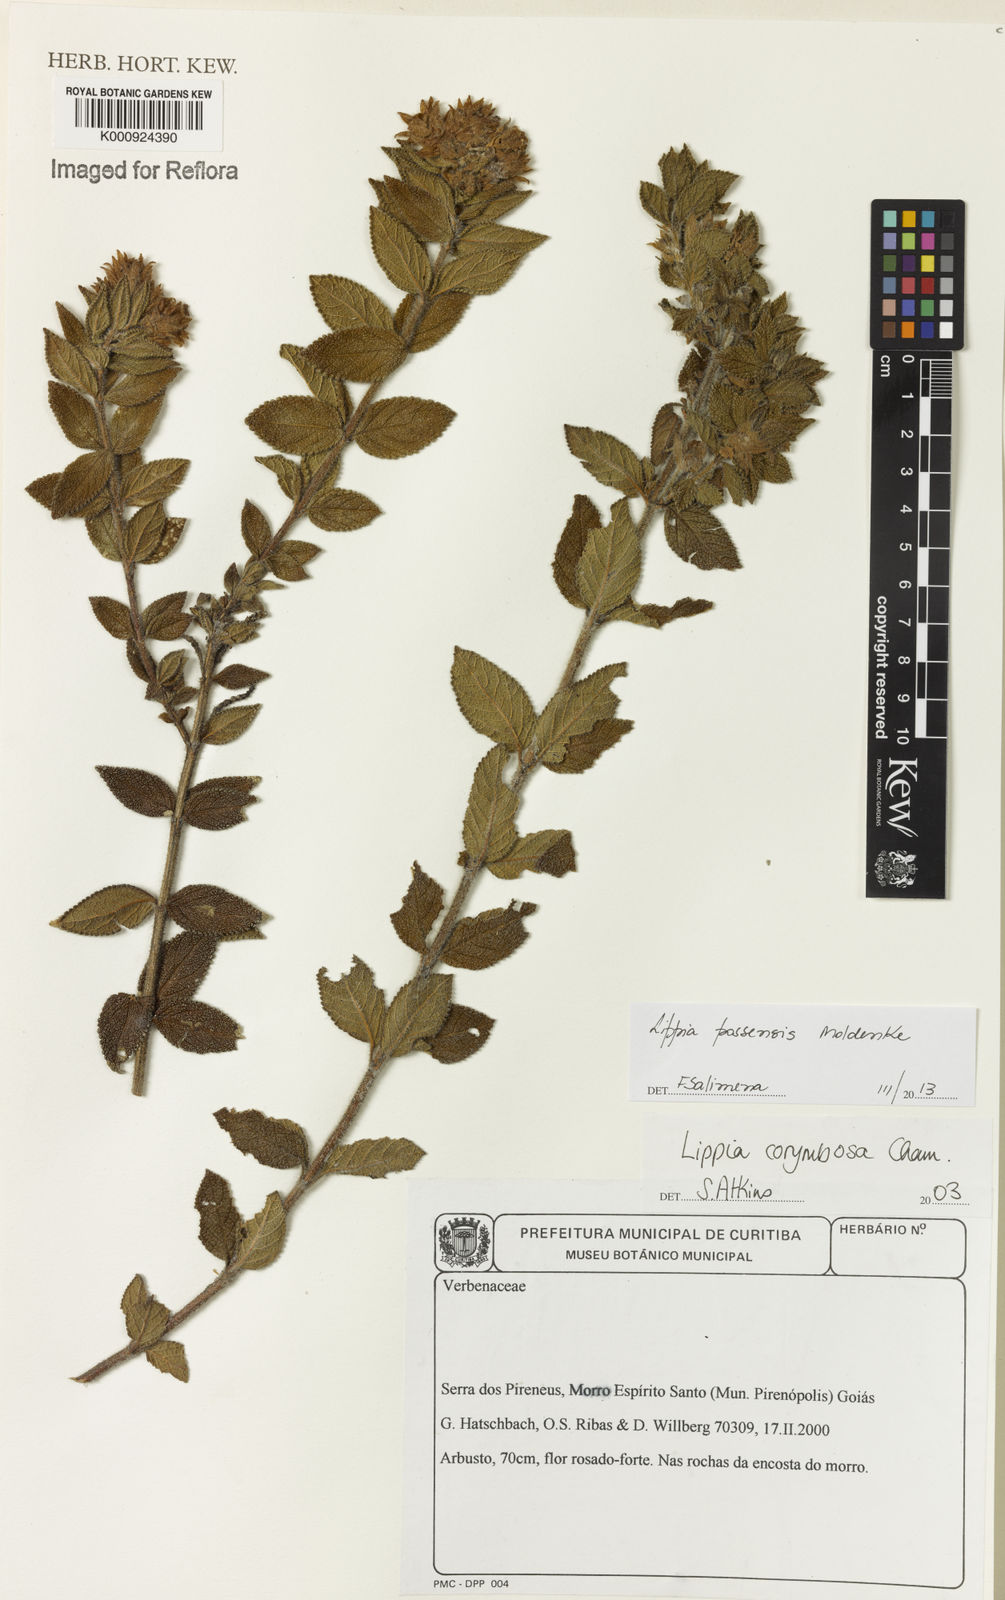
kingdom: Plantae
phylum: Tracheophyta
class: Magnoliopsida
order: Lamiales
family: Verbenaceae
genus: Lippia
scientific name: Lippia possensis
